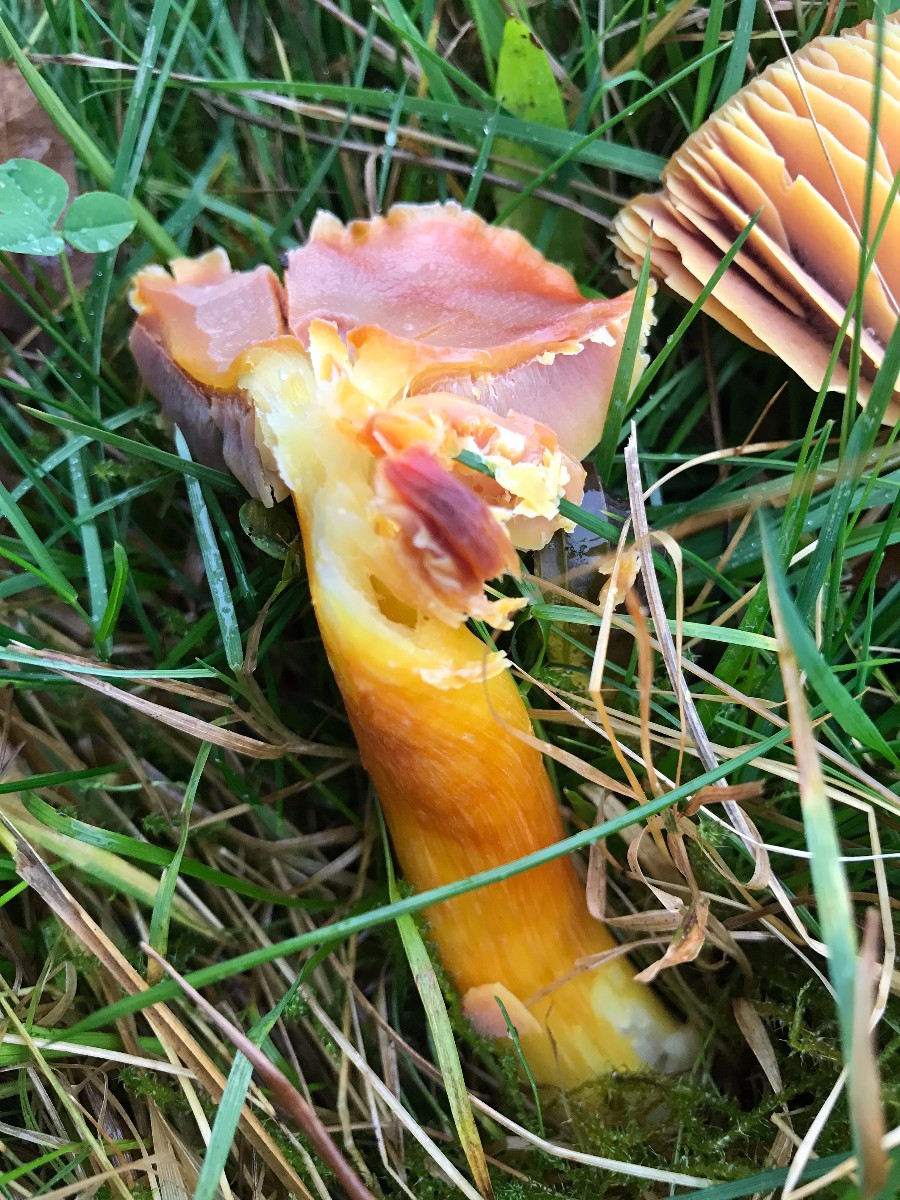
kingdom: Fungi
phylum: Basidiomycota
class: Agaricomycetes
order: Agaricales
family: Hygrophoraceae
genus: Hygrocybe
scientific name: Hygrocybe punicea
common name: skarlagen-vokshat
